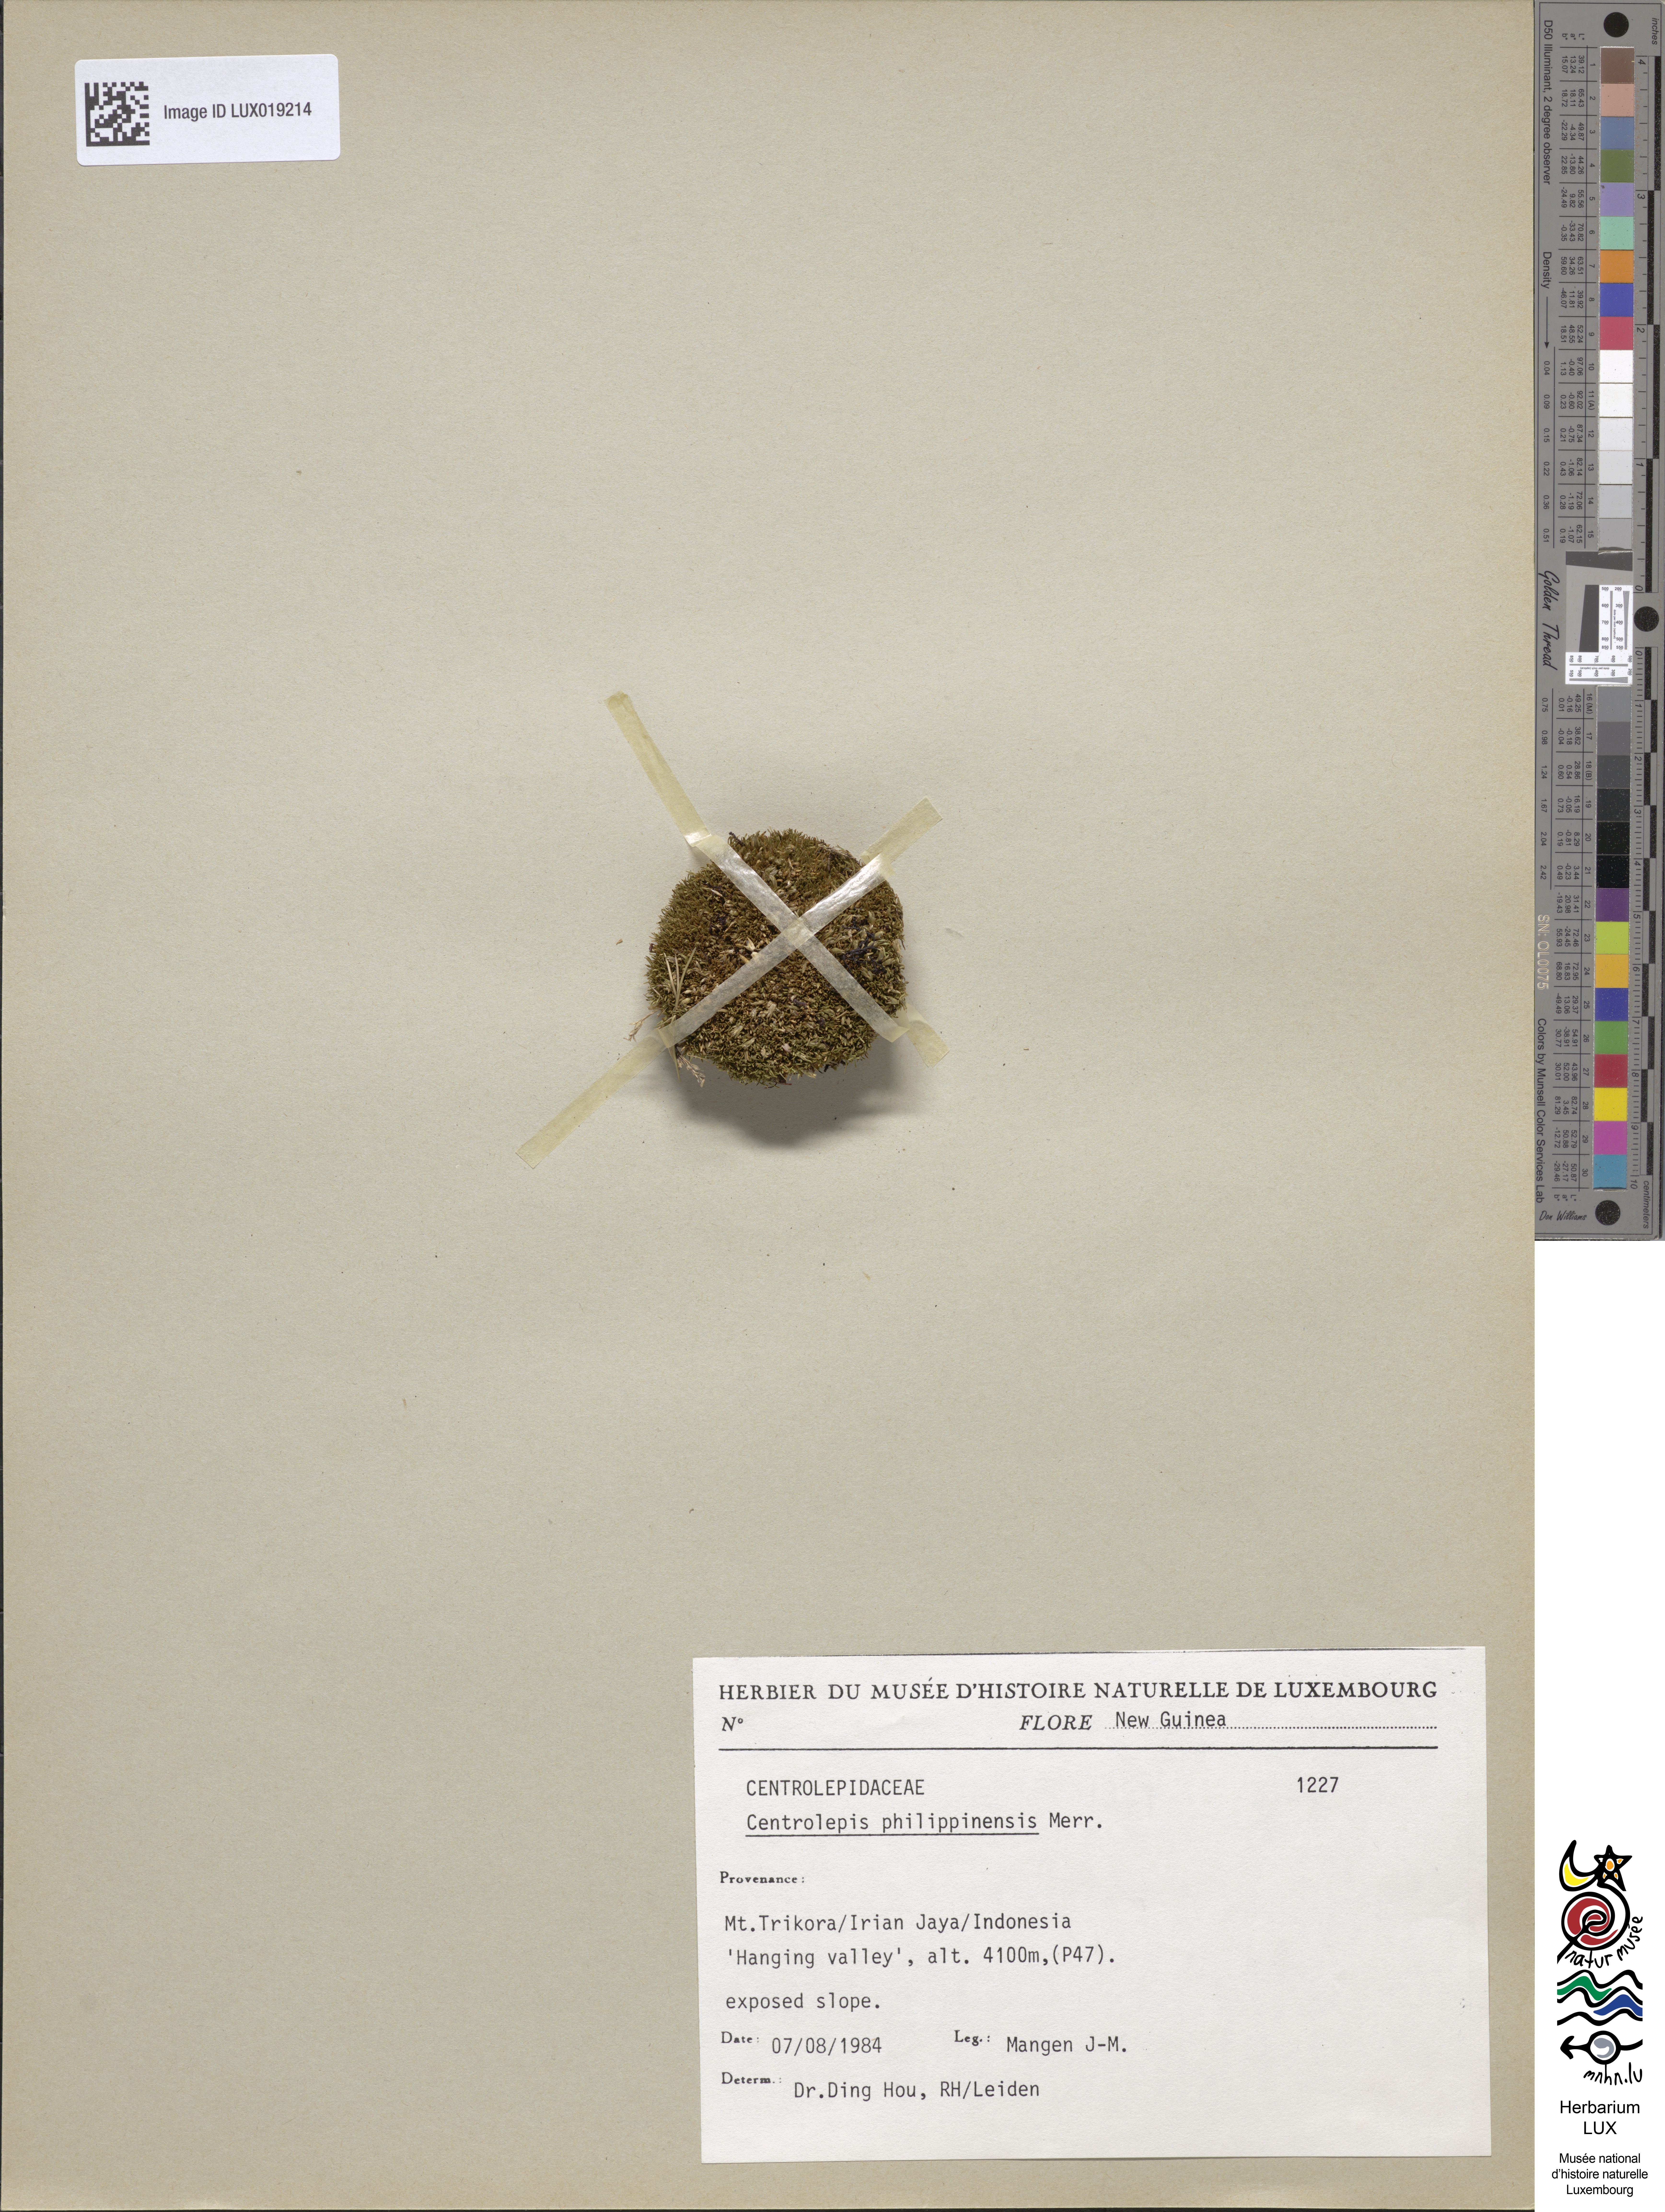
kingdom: Plantae
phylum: Tracheophyta
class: Liliopsida
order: Poales
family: Restionaceae
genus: Centrolepis
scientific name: Centrolepis philippinensis
